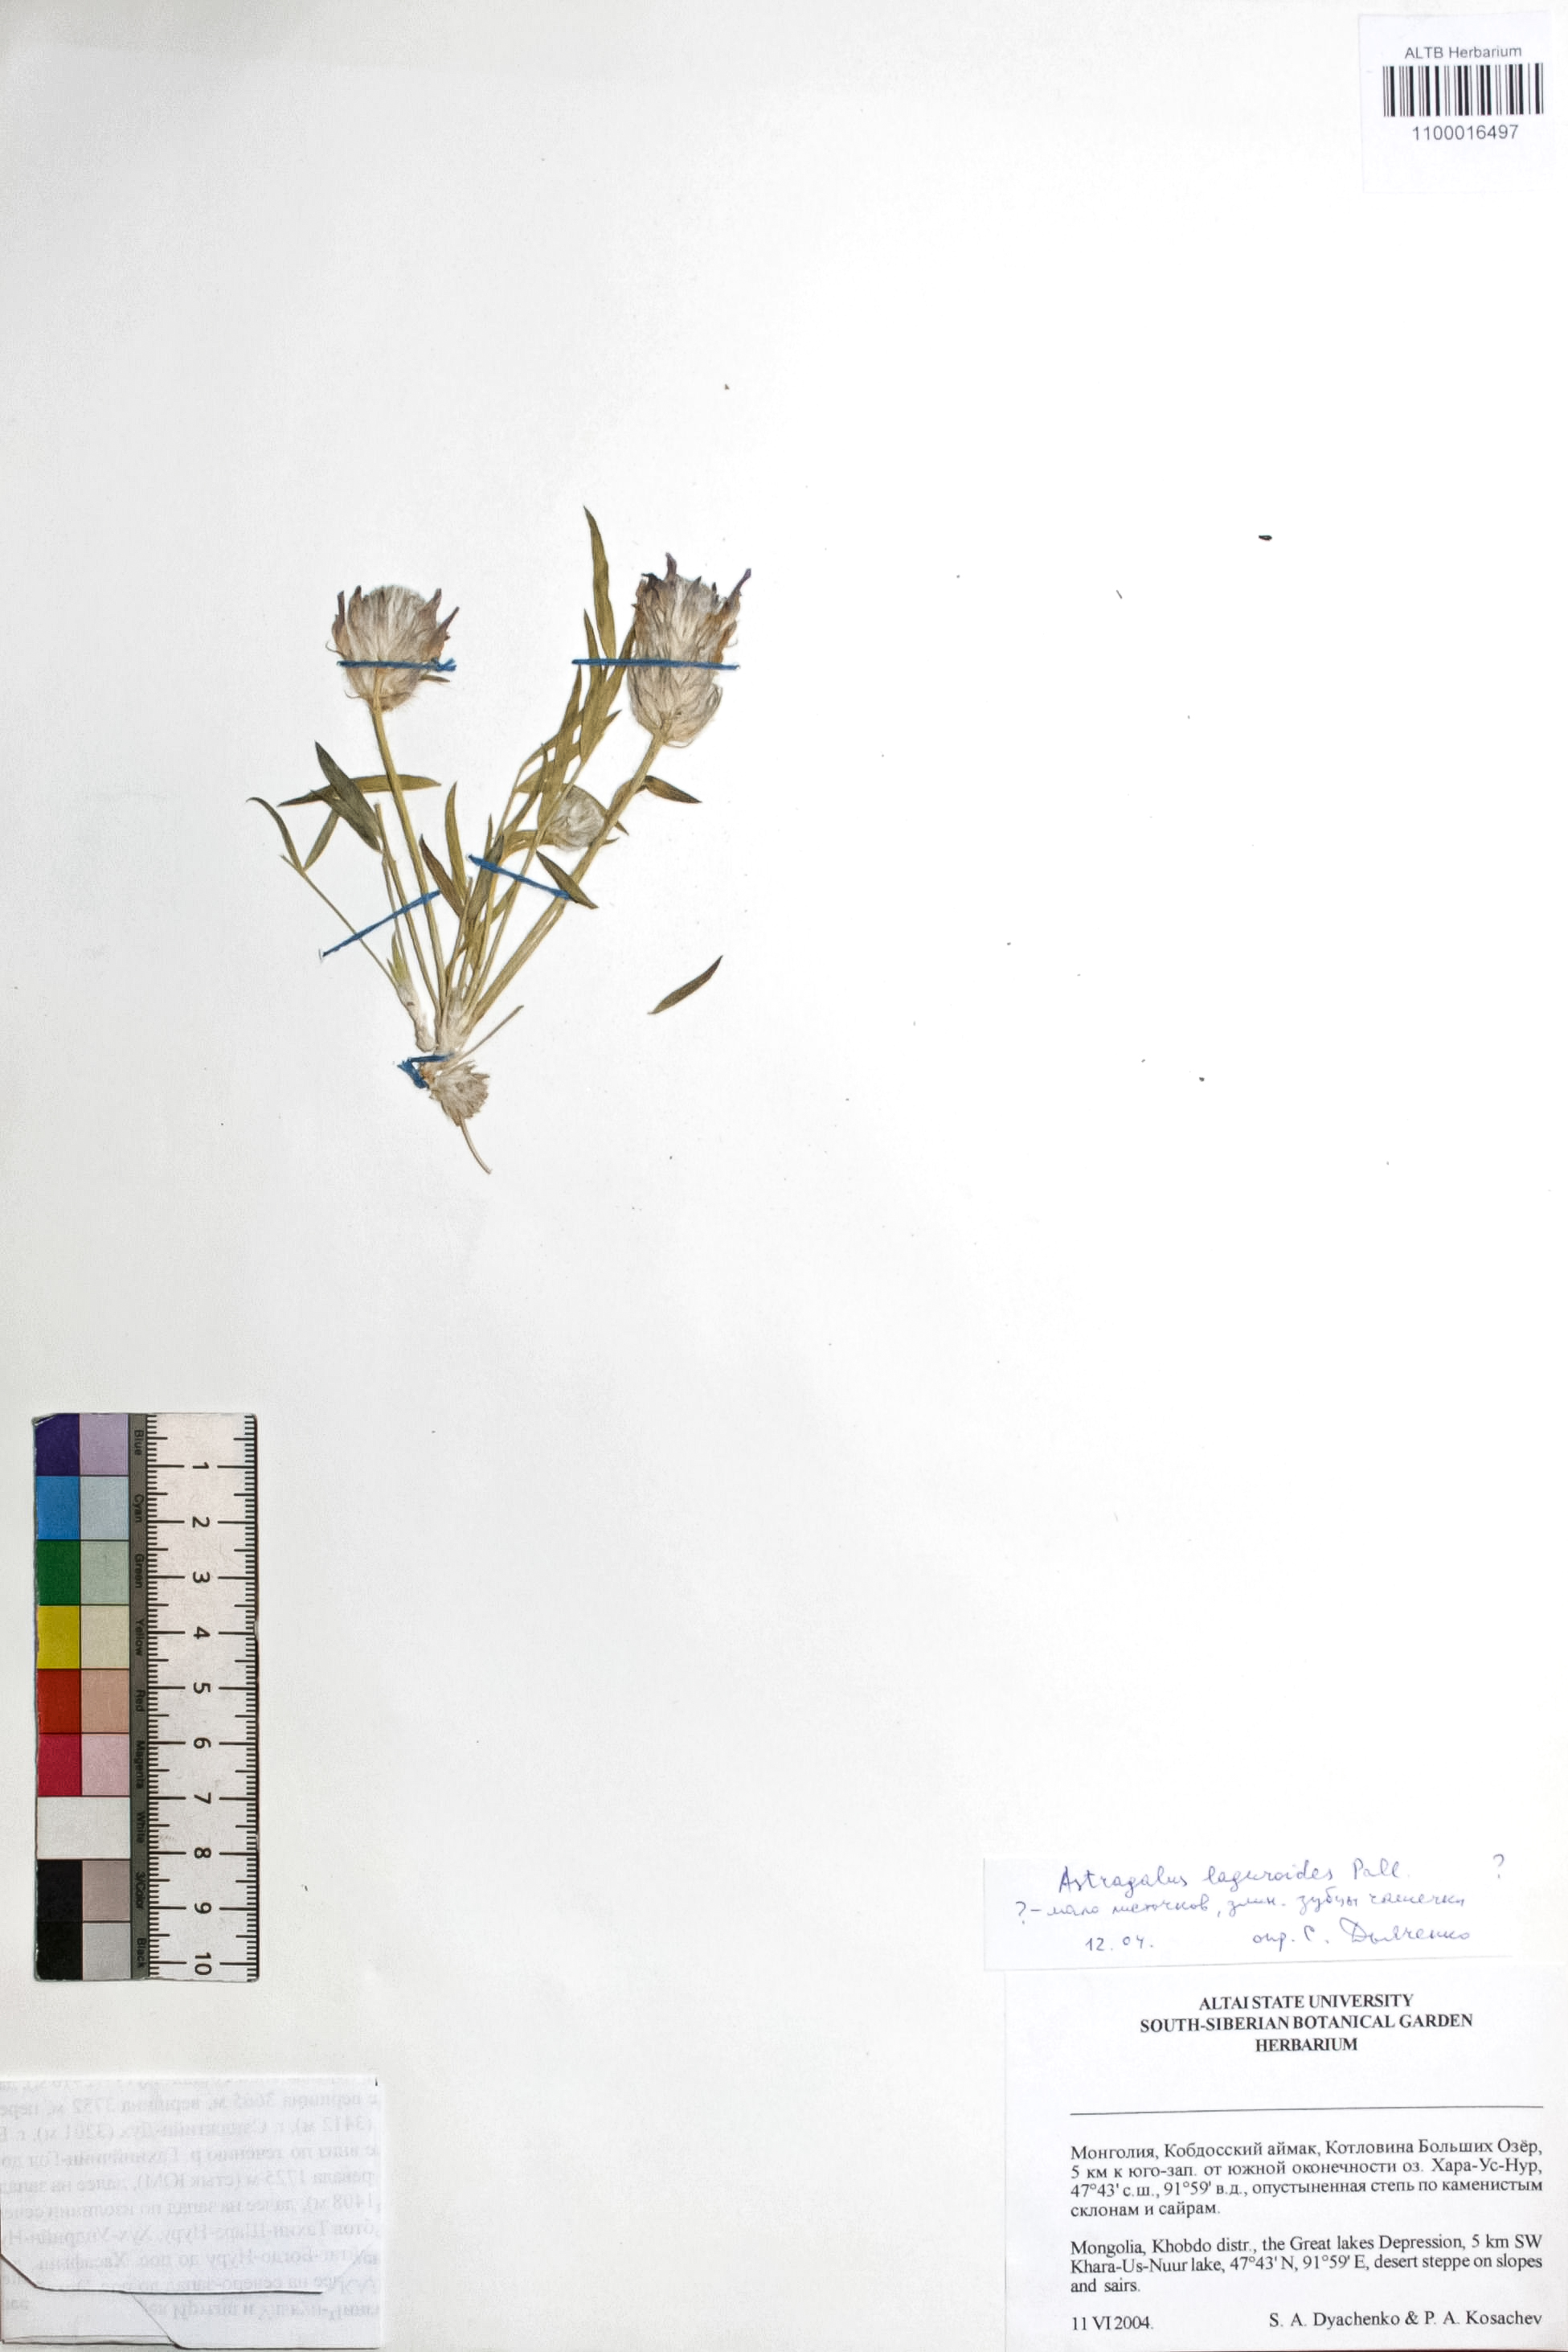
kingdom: Plantae
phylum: Tracheophyta
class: Magnoliopsida
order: Fabales
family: Fabaceae
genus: Astragalus
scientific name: Astragalus laguroides
